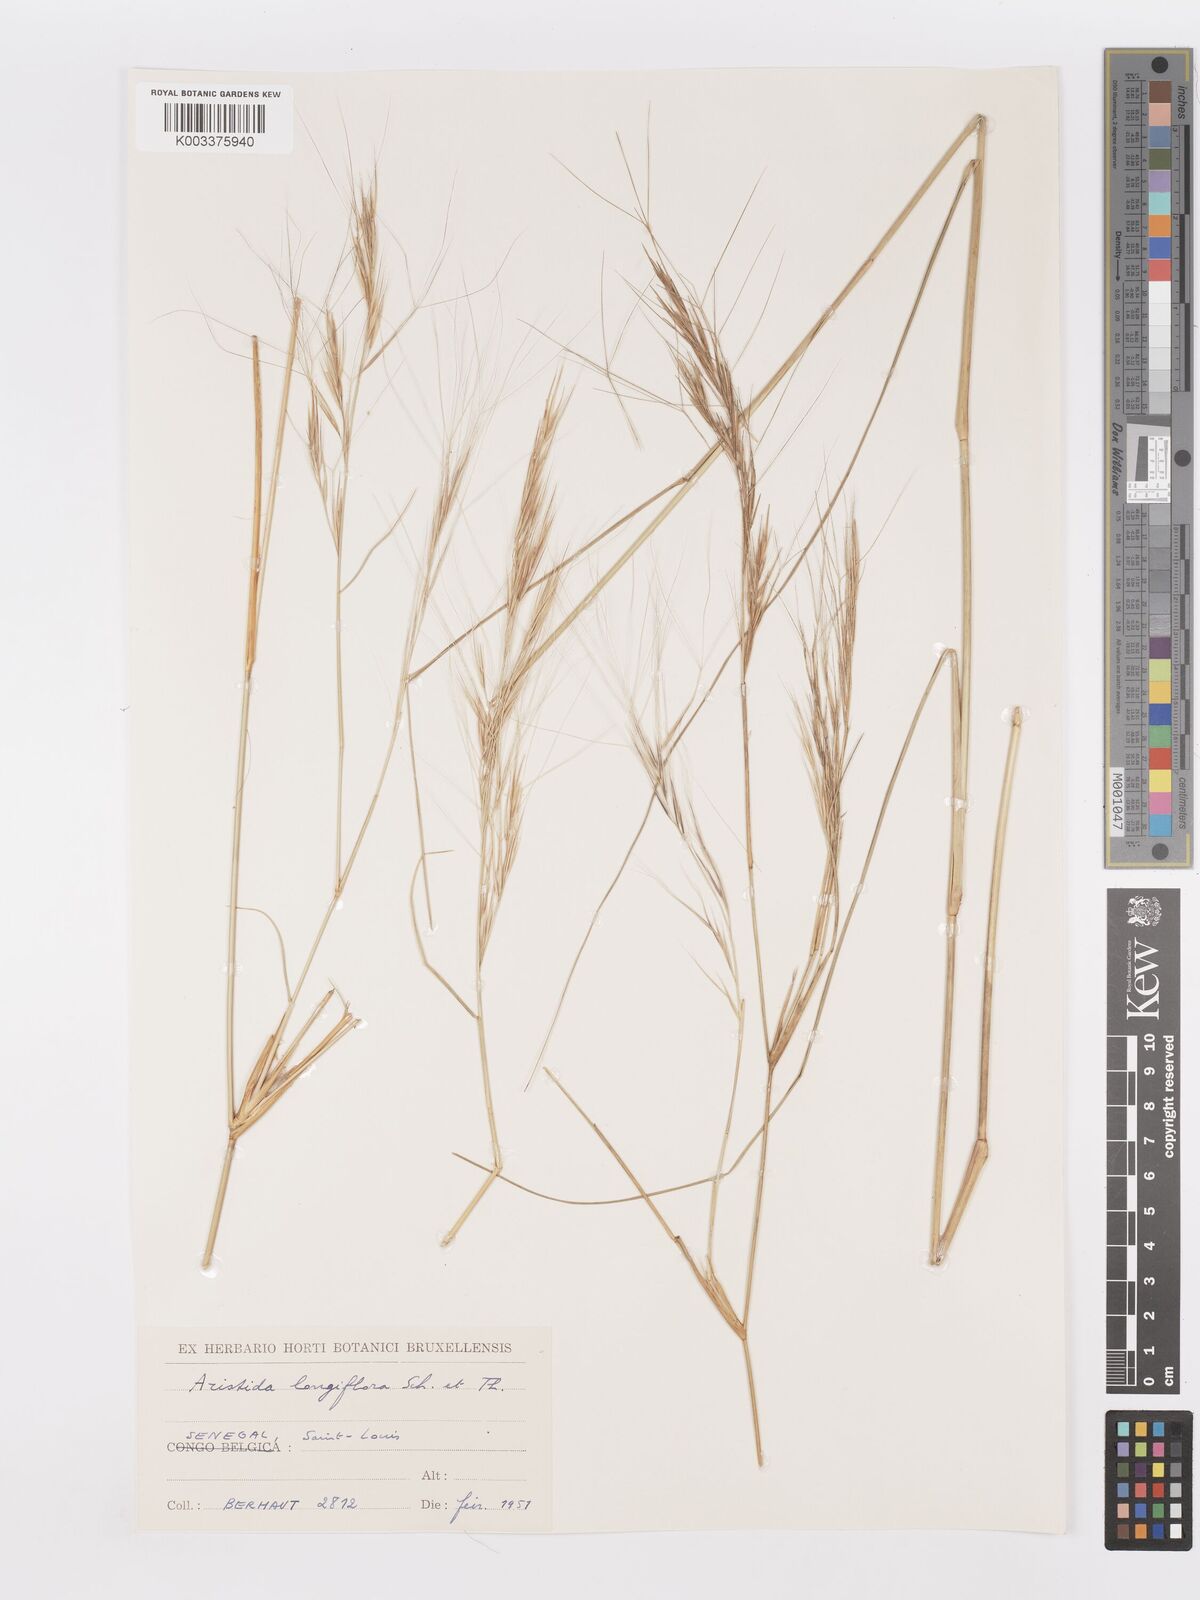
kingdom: Plantae
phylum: Tracheophyta
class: Liliopsida
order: Poales
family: Poaceae
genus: Aristida
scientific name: Aristida sieberiana
